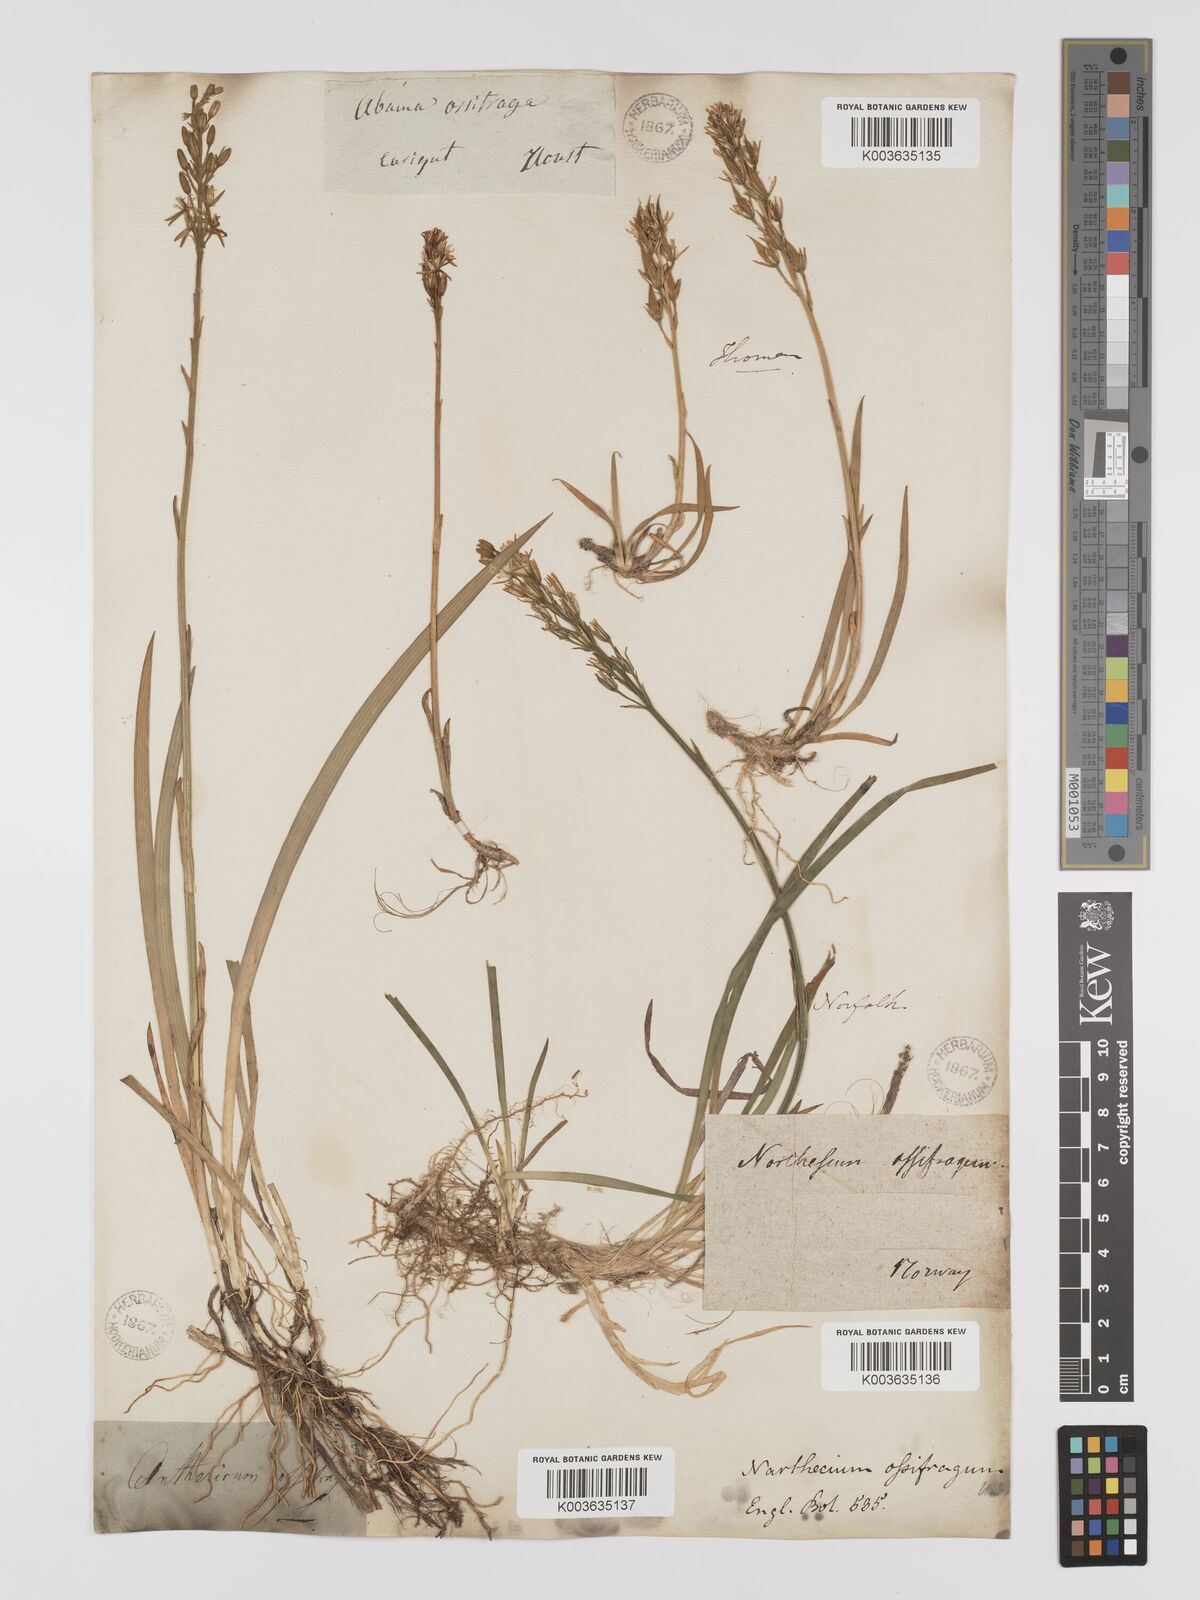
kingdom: Plantae
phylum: Tracheophyta
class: Liliopsida
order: Dioscoreales
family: Nartheciaceae
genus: Narthecium
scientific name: Narthecium ossifragum
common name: Bog asphodel
